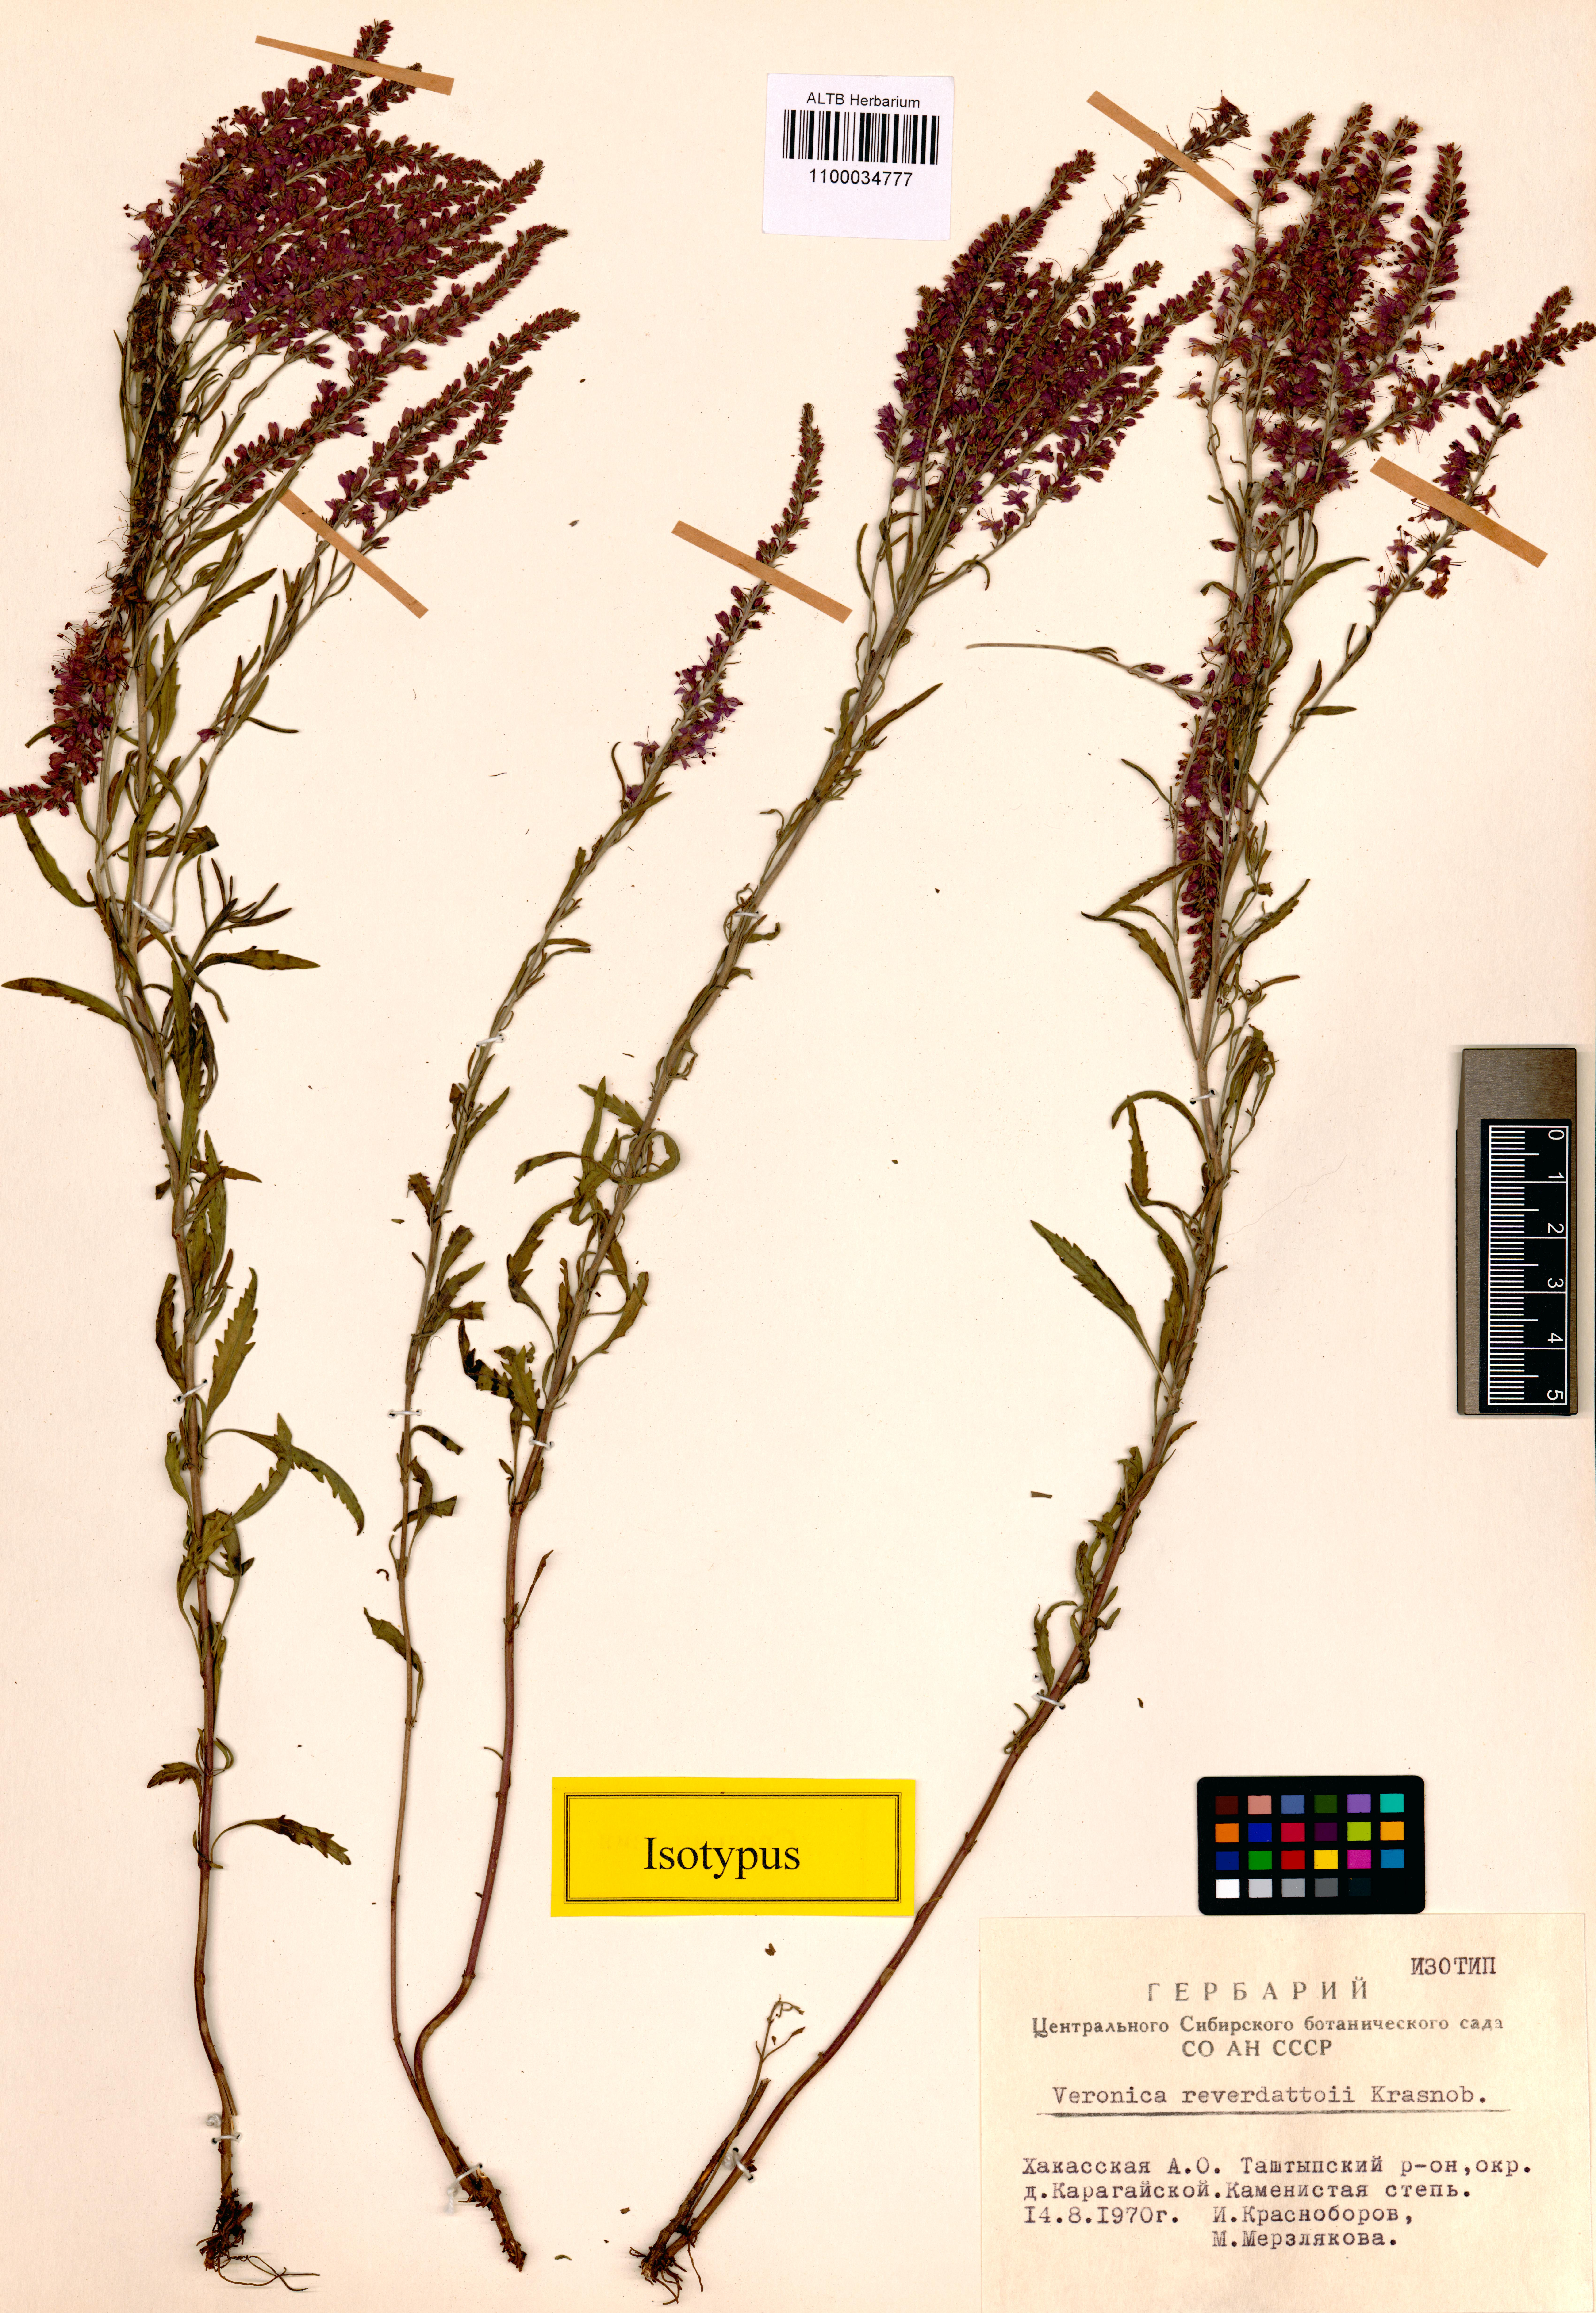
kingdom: Plantae
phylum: Tracheophyta
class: Magnoliopsida
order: Lamiales
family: Plantaginaceae
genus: Veronica
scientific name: Veronica reverdattoi
